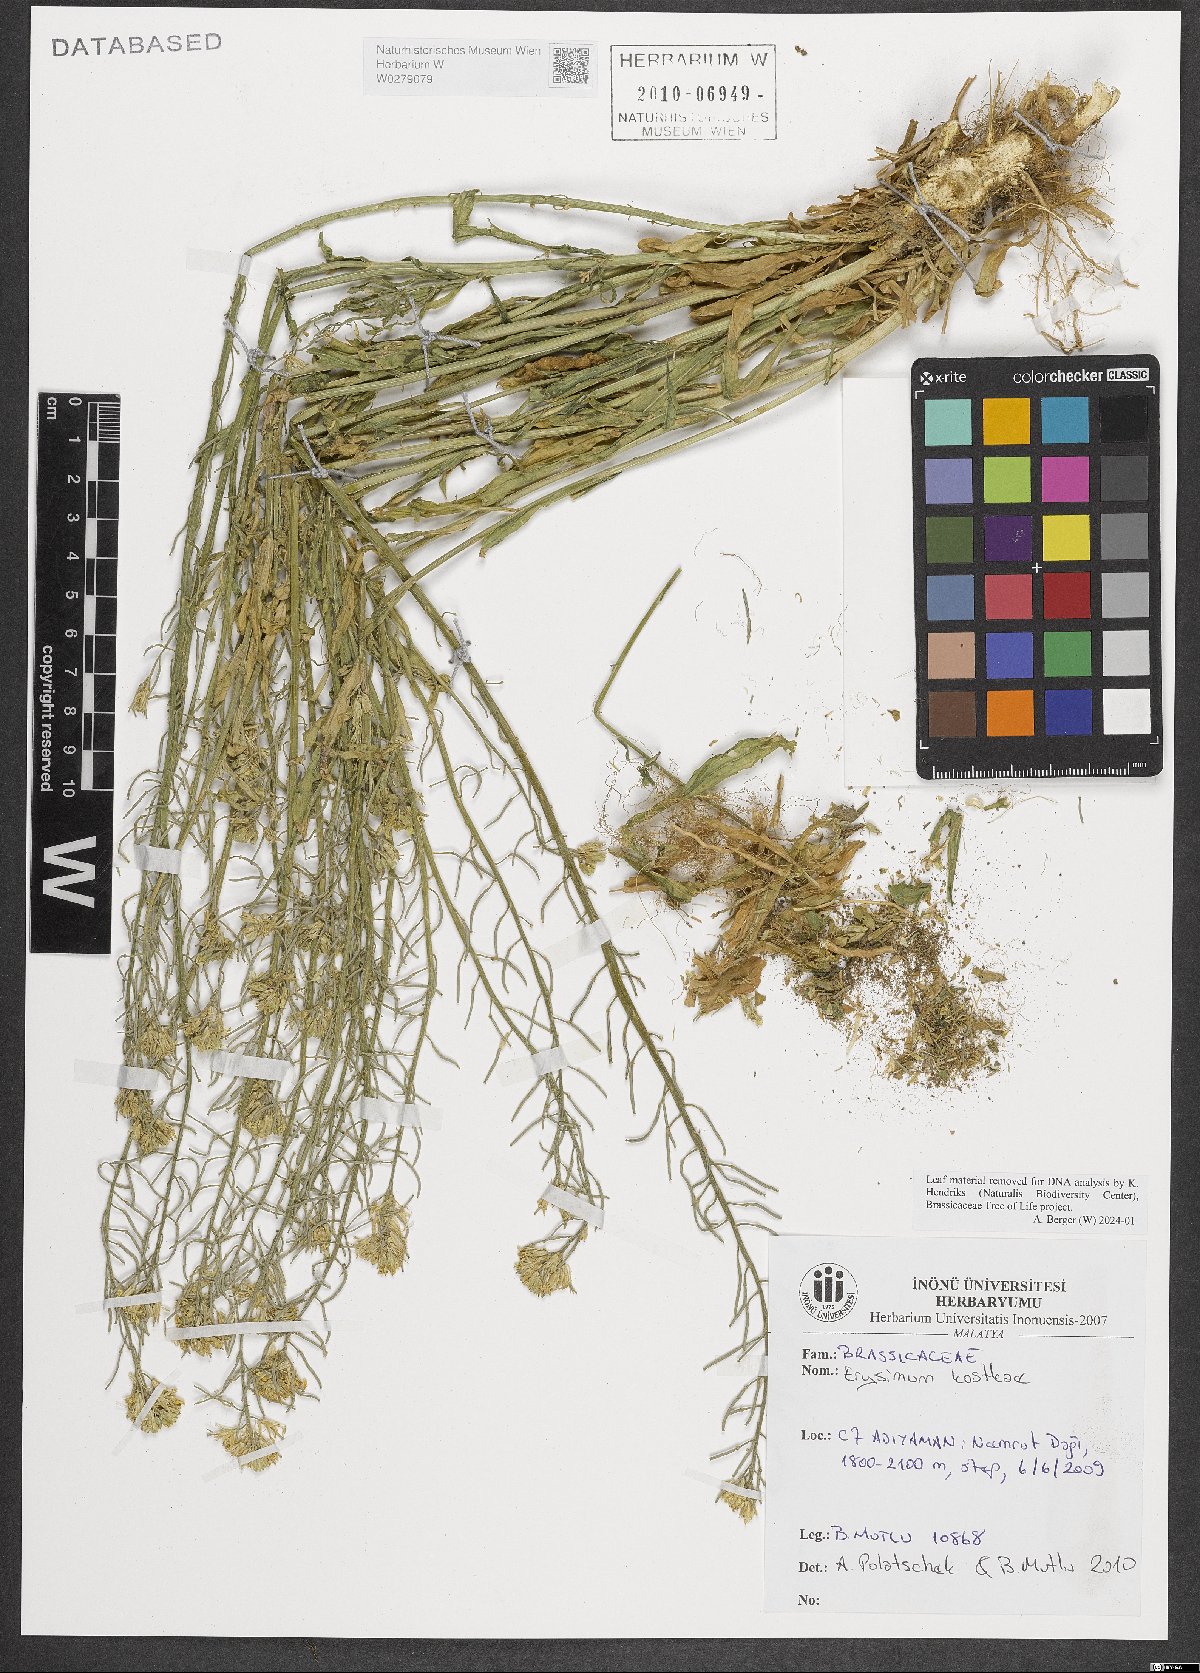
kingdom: Plantae
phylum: Tracheophyta
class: Magnoliopsida
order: Brassicales
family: Brassicaceae
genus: Erysimum
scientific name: Erysimum kostkae
